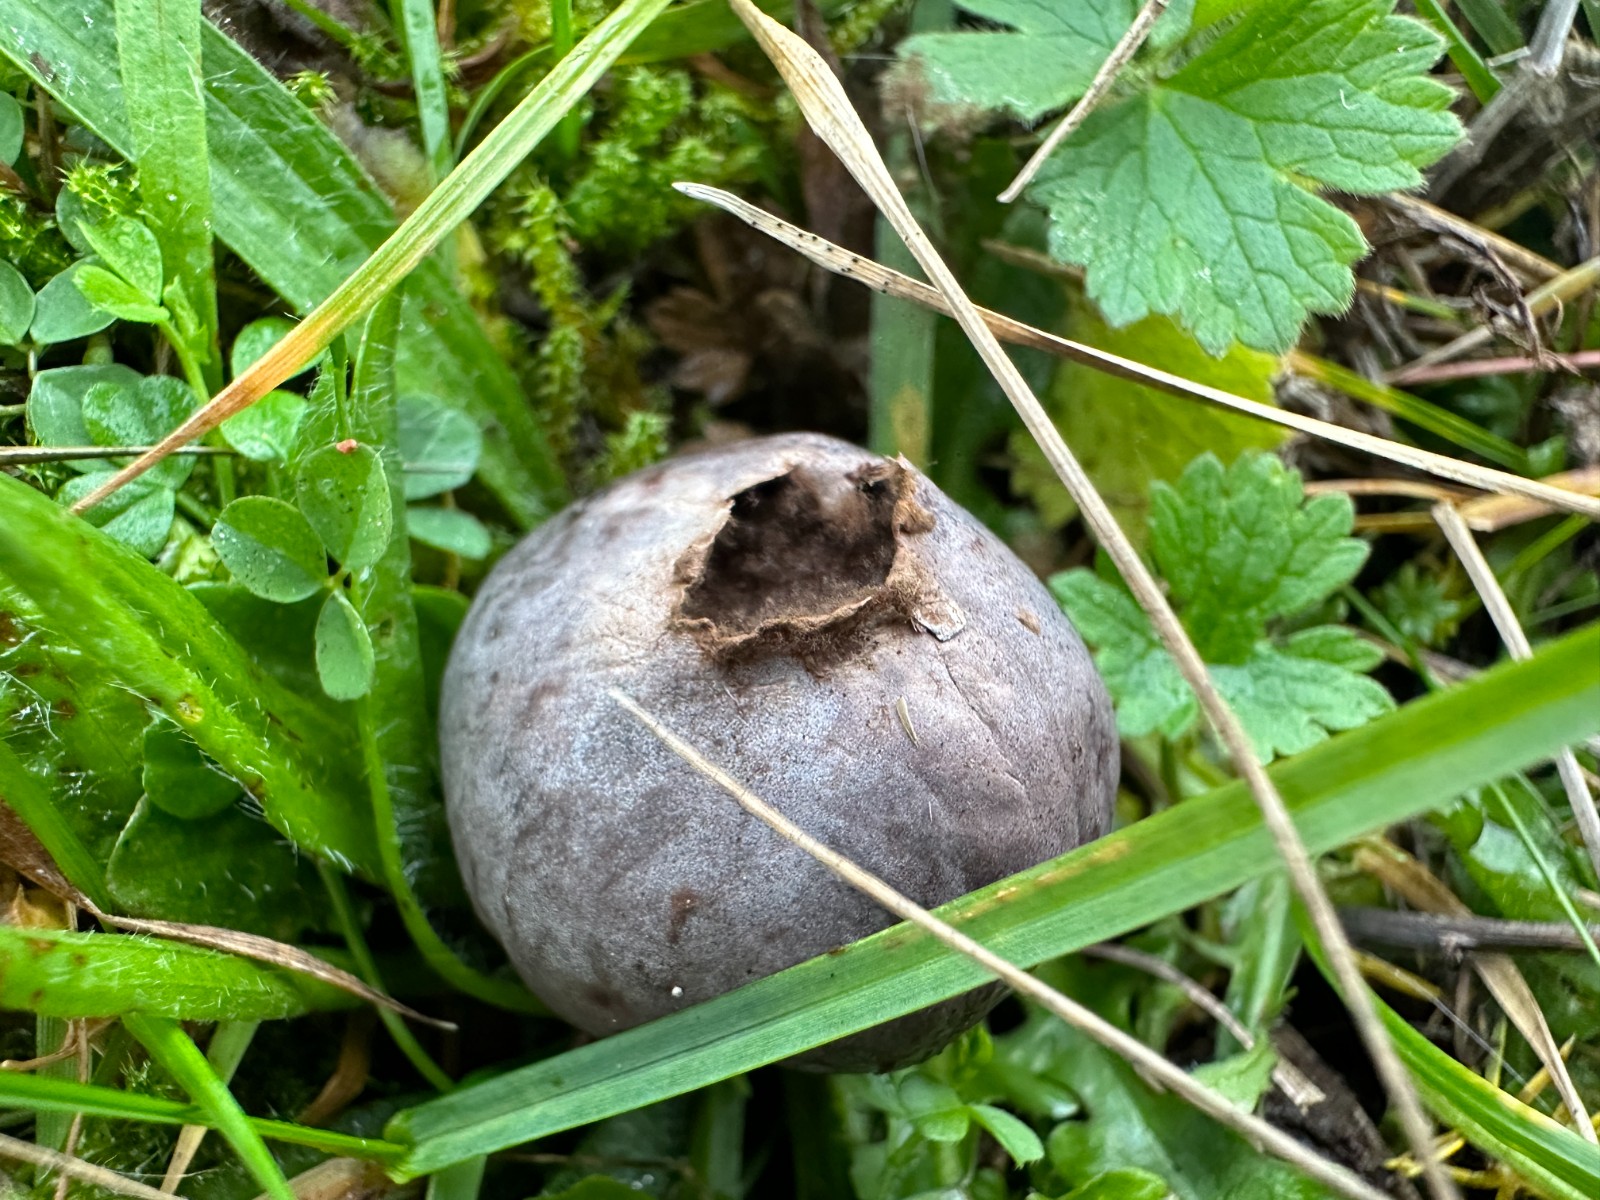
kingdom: Fungi
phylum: Basidiomycota
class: Agaricomycetes
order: Agaricales
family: Lycoperdaceae
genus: Bovista
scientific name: Bovista plumbea
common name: blygrå bovist
